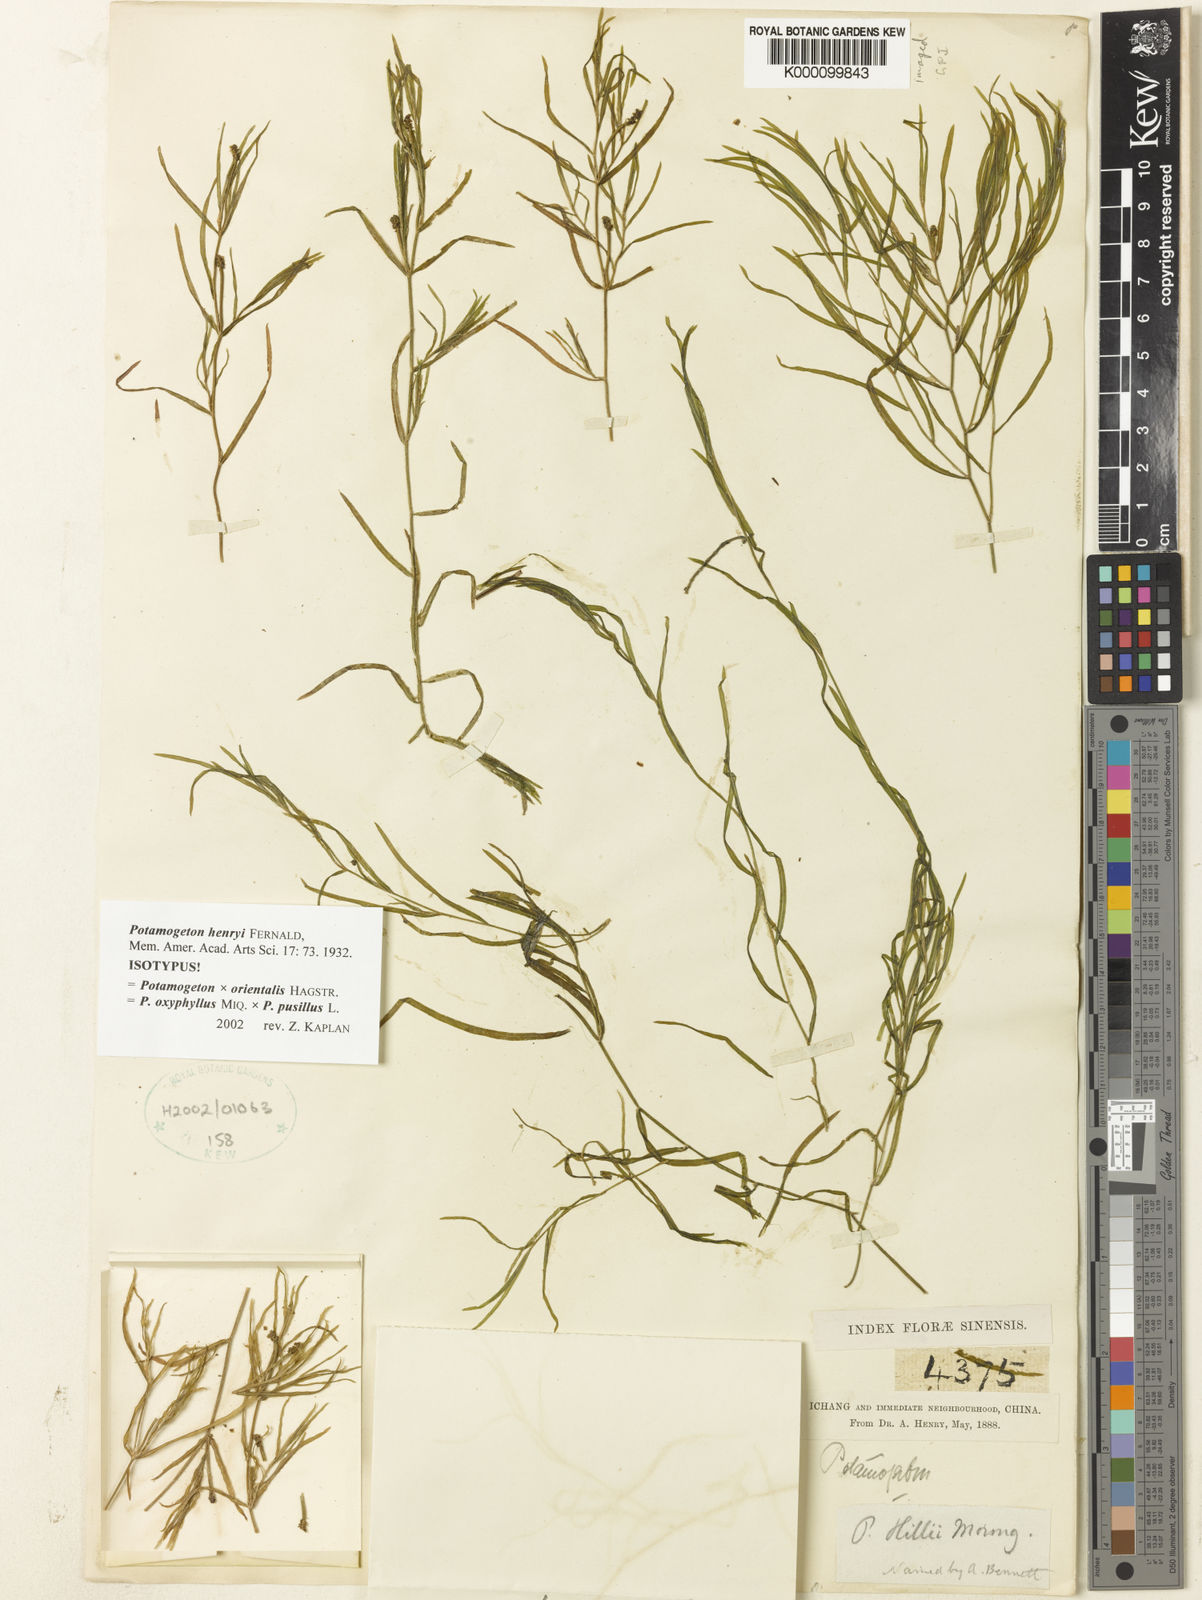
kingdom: Plantae
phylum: Tracheophyta
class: Liliopsida
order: Alismatales
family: Potamogetonaceae
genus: Potamogeton
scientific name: Potamogeton orientalis
